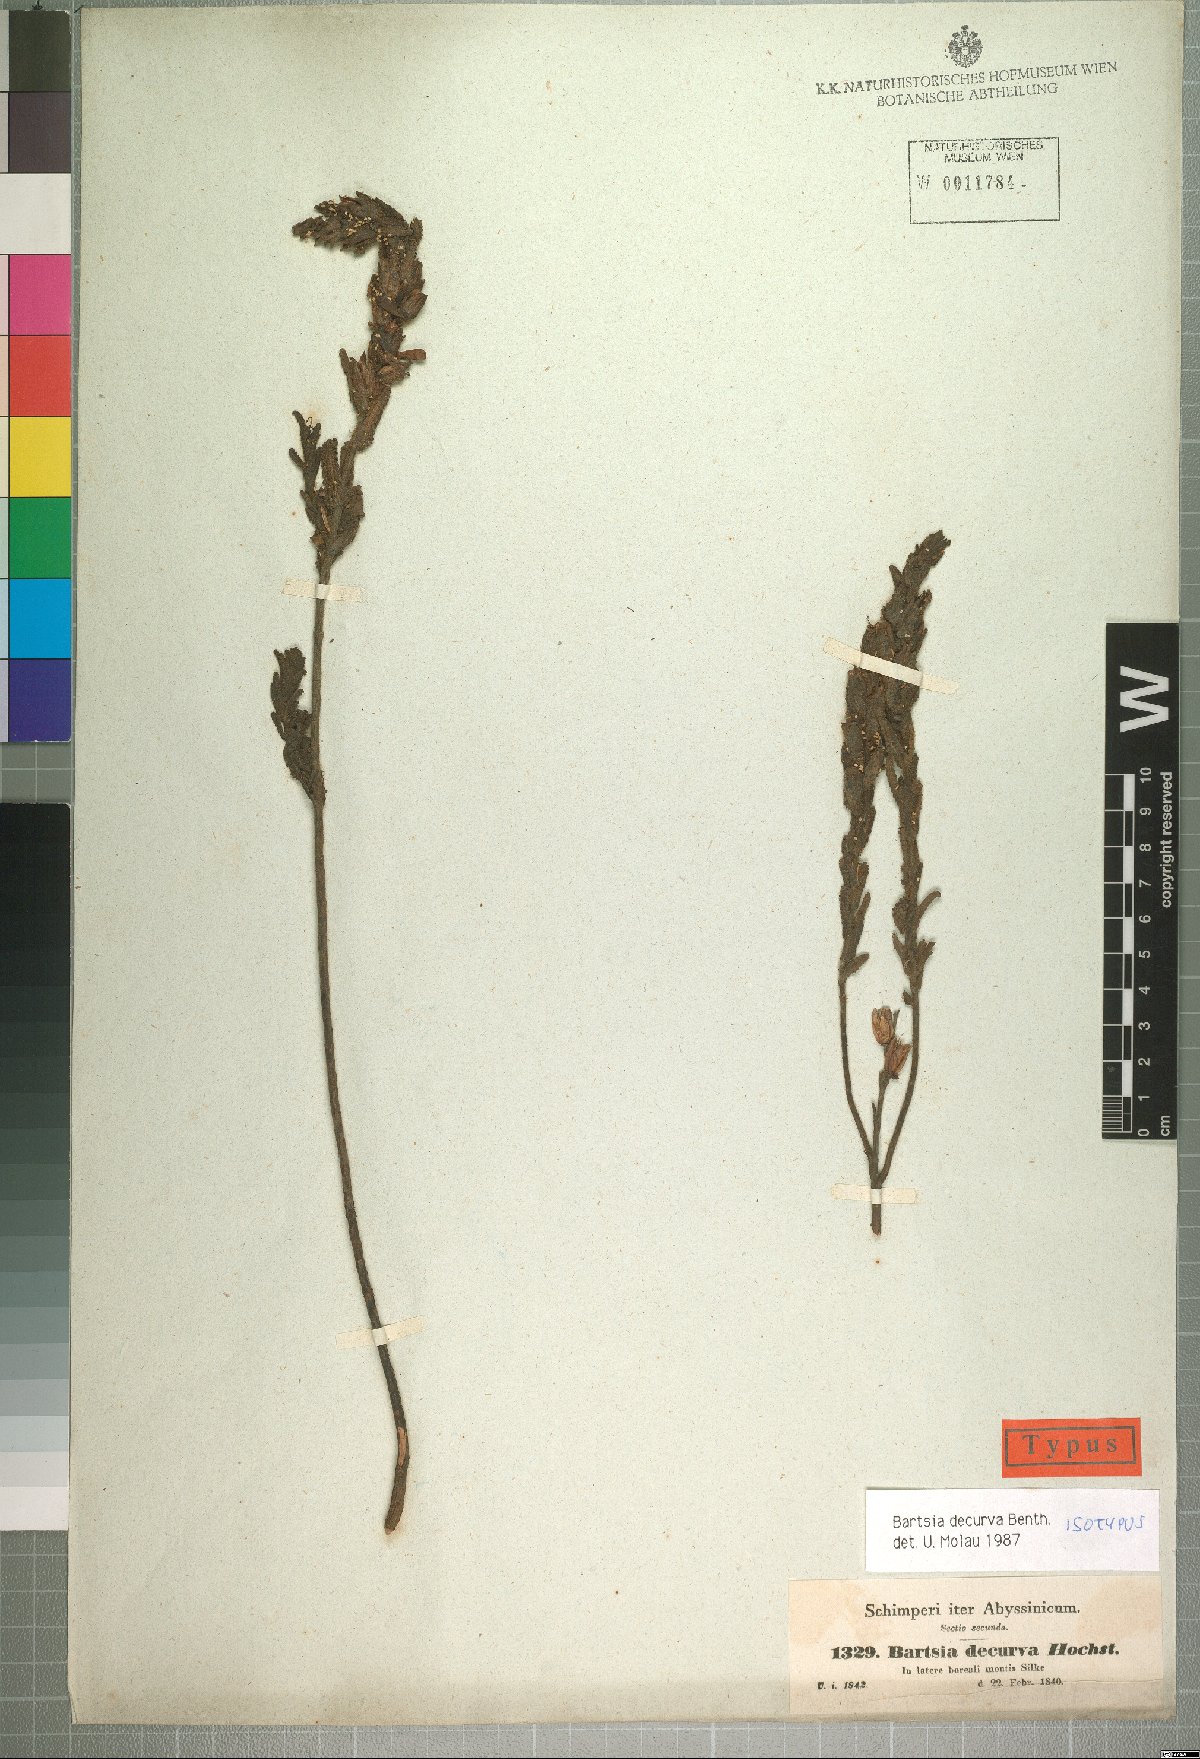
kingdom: Plantae
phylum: Tracheophyta
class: Magnoliopsida
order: Lamiales
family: Orobanchaceae
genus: Hedbergia
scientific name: Hedbergia decurva
